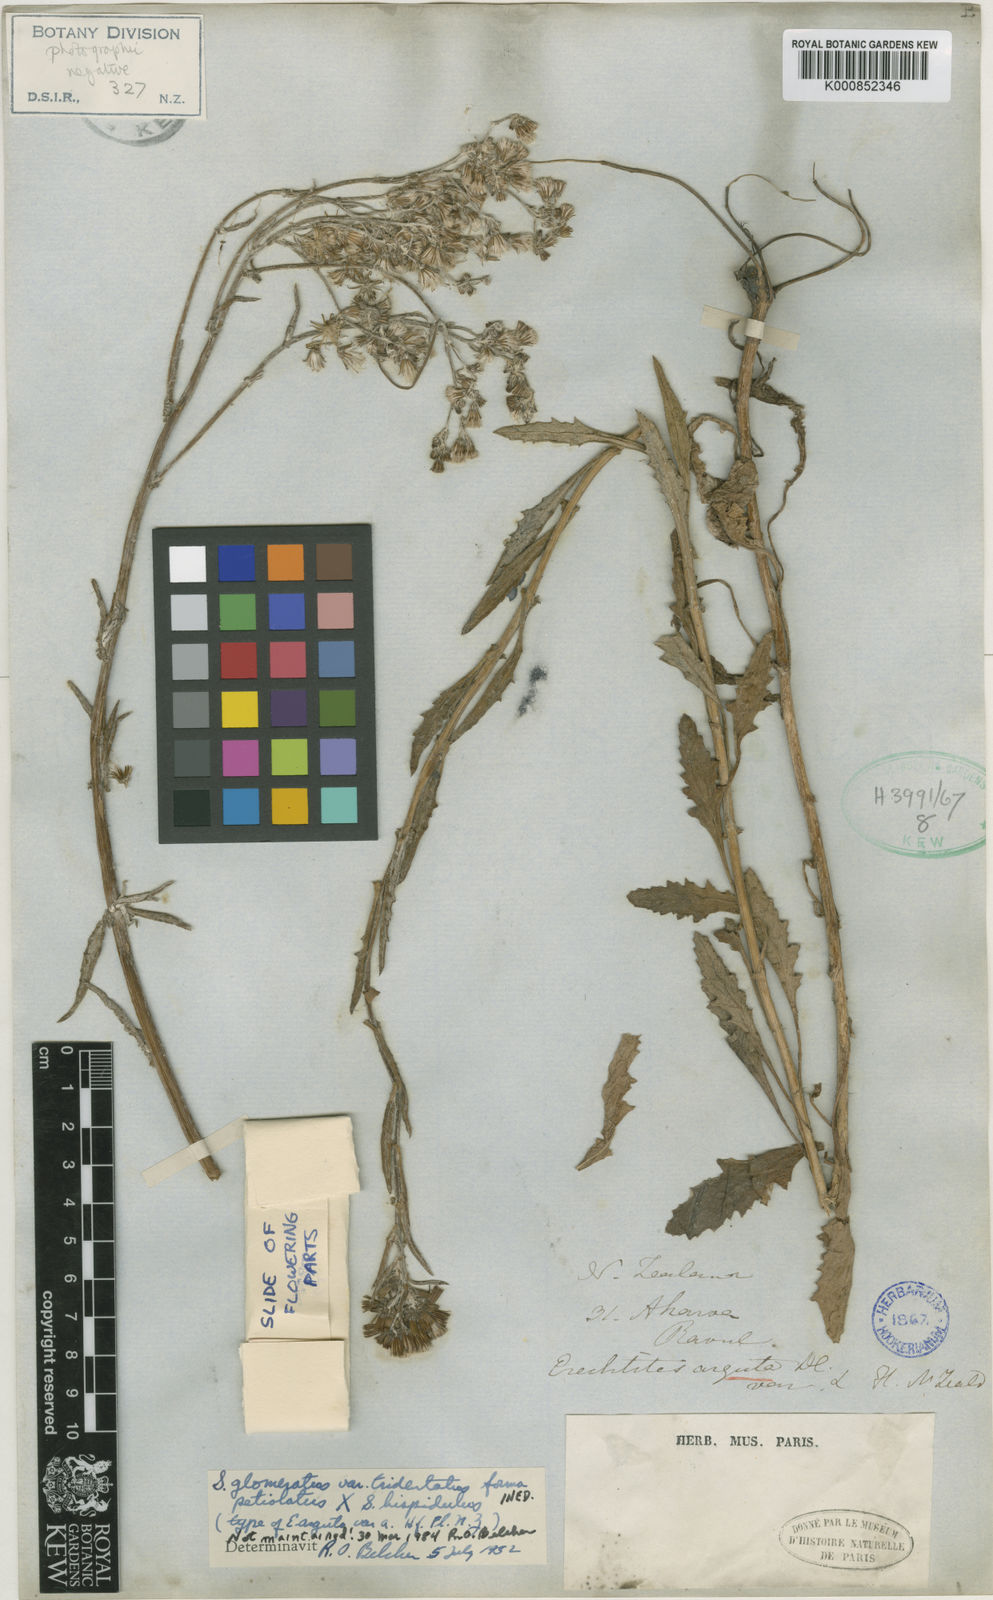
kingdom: Plantae
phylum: Tracheophyta
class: Magnoliopsida
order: Asterales
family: Asteraceae
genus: Senecio
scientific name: Senecio glomeratus
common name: Cutleaf burnweed
